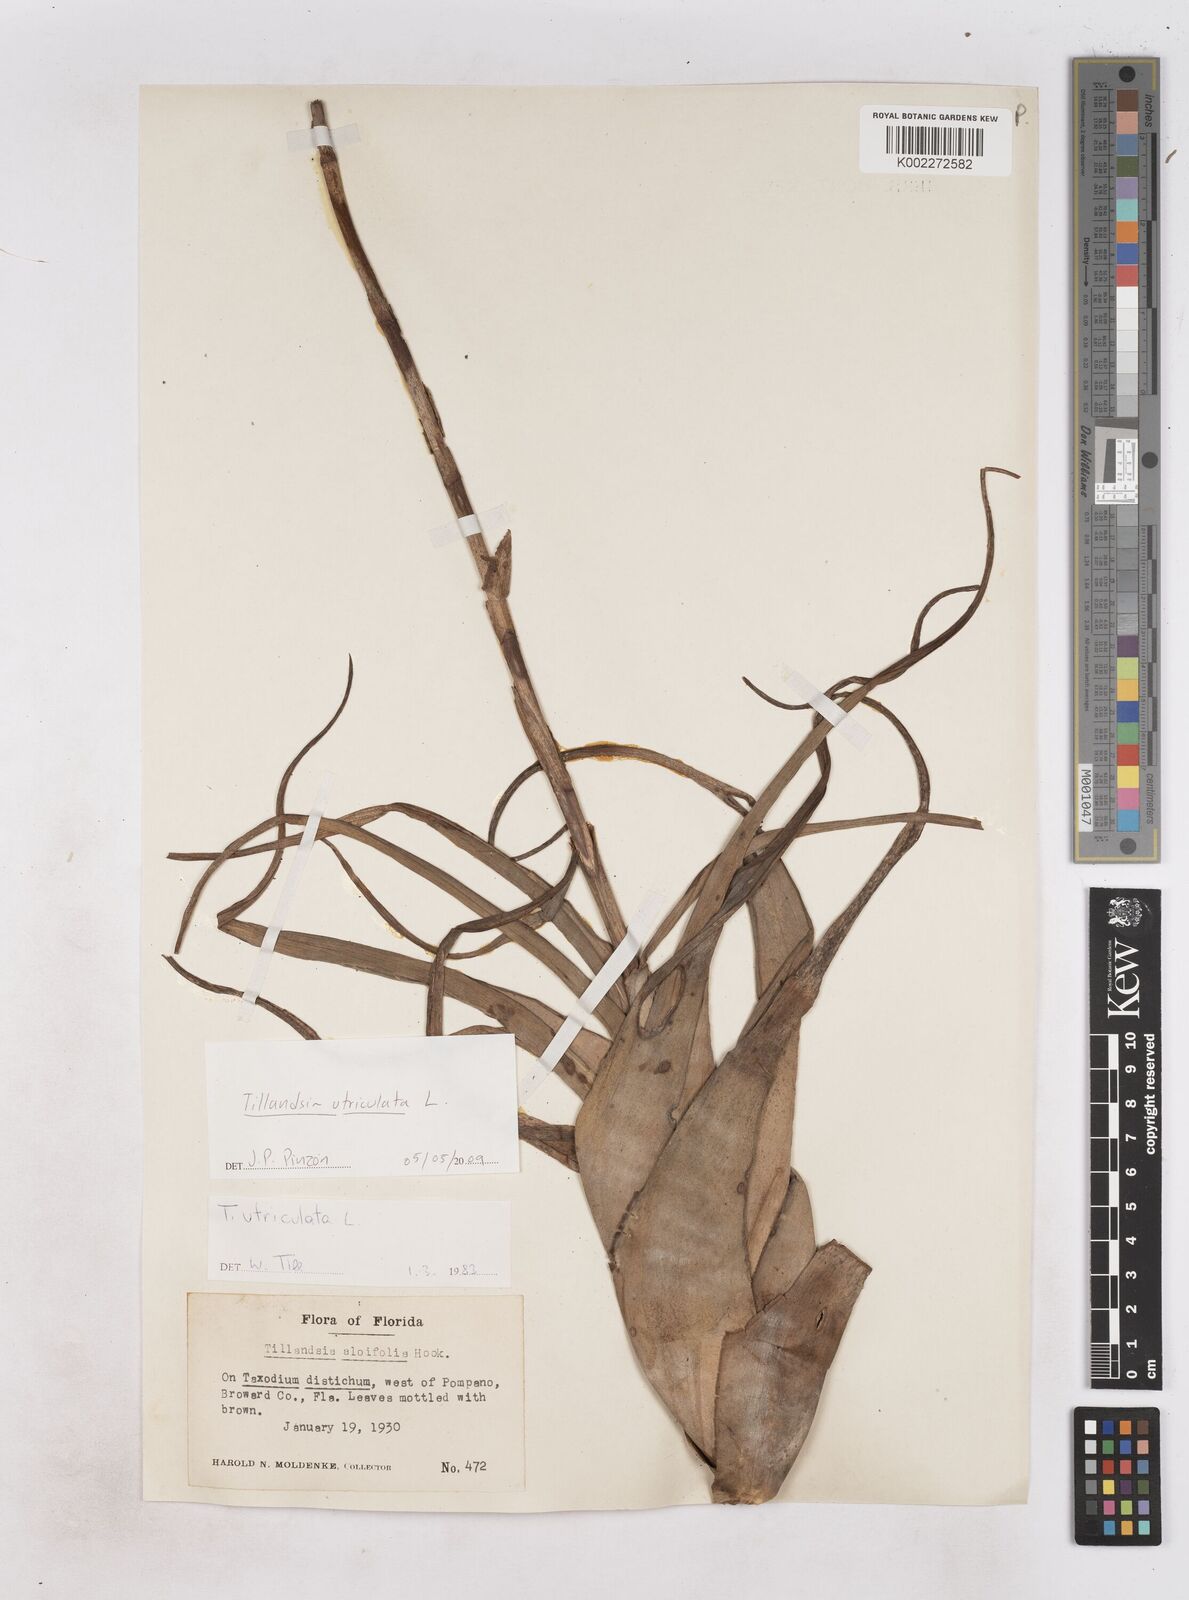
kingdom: Plantae
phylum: Tracheophyta
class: Liliopsida
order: Poales
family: Bromeliaceae
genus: Tillandsia
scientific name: Tillandsia utriculata
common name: Wild pine
